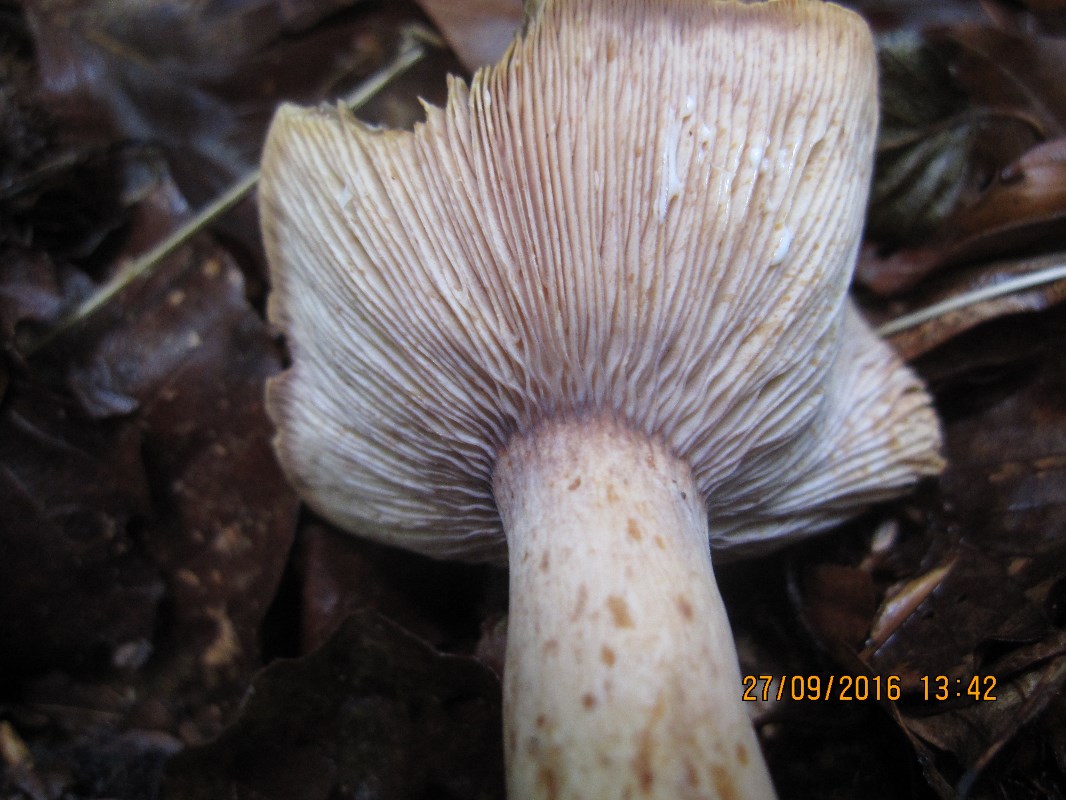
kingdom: Fungi
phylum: Basidiomycota
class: Agaricomycetes
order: Russulales
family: Russulaceae
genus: Lactarius
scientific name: Lactarius rubrocinctus
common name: halsbånd-mælkehat
